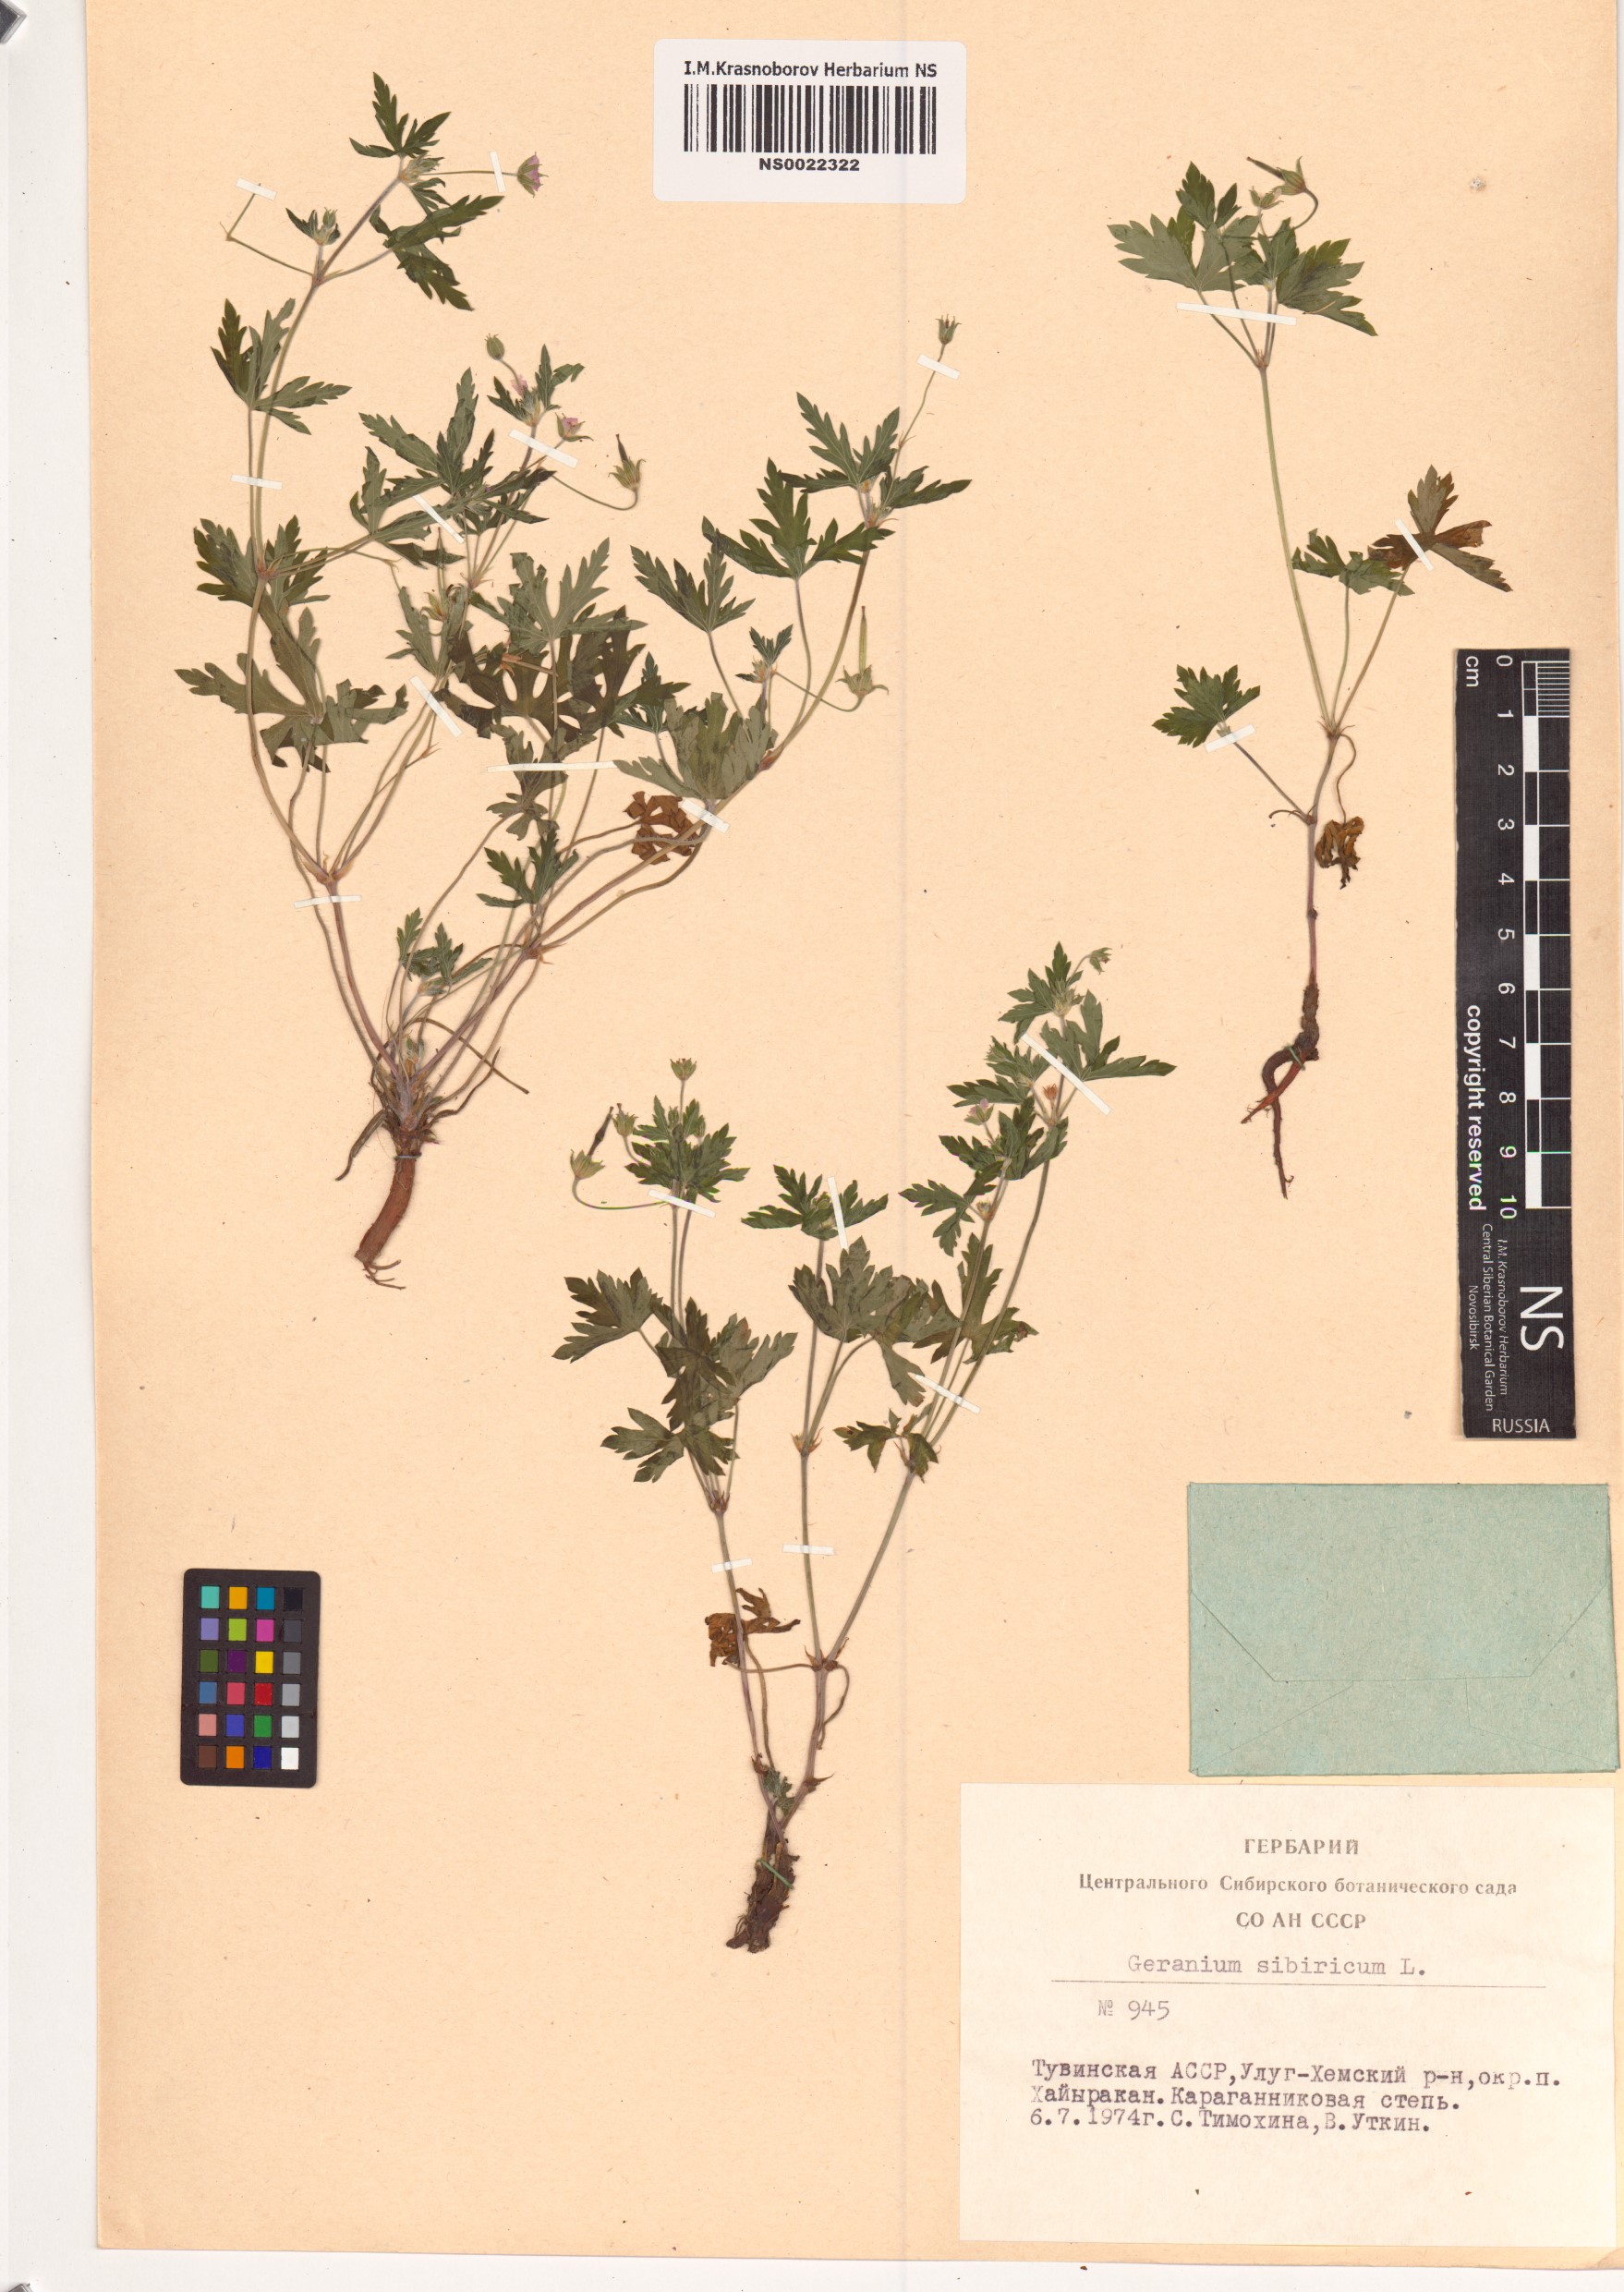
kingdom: Plantae
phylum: Tracheophyta
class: Magnoliopsida
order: Geraniales
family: Geraniaceae
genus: Geranium
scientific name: Geranium sibiricum
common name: Siberian crane's-bill
